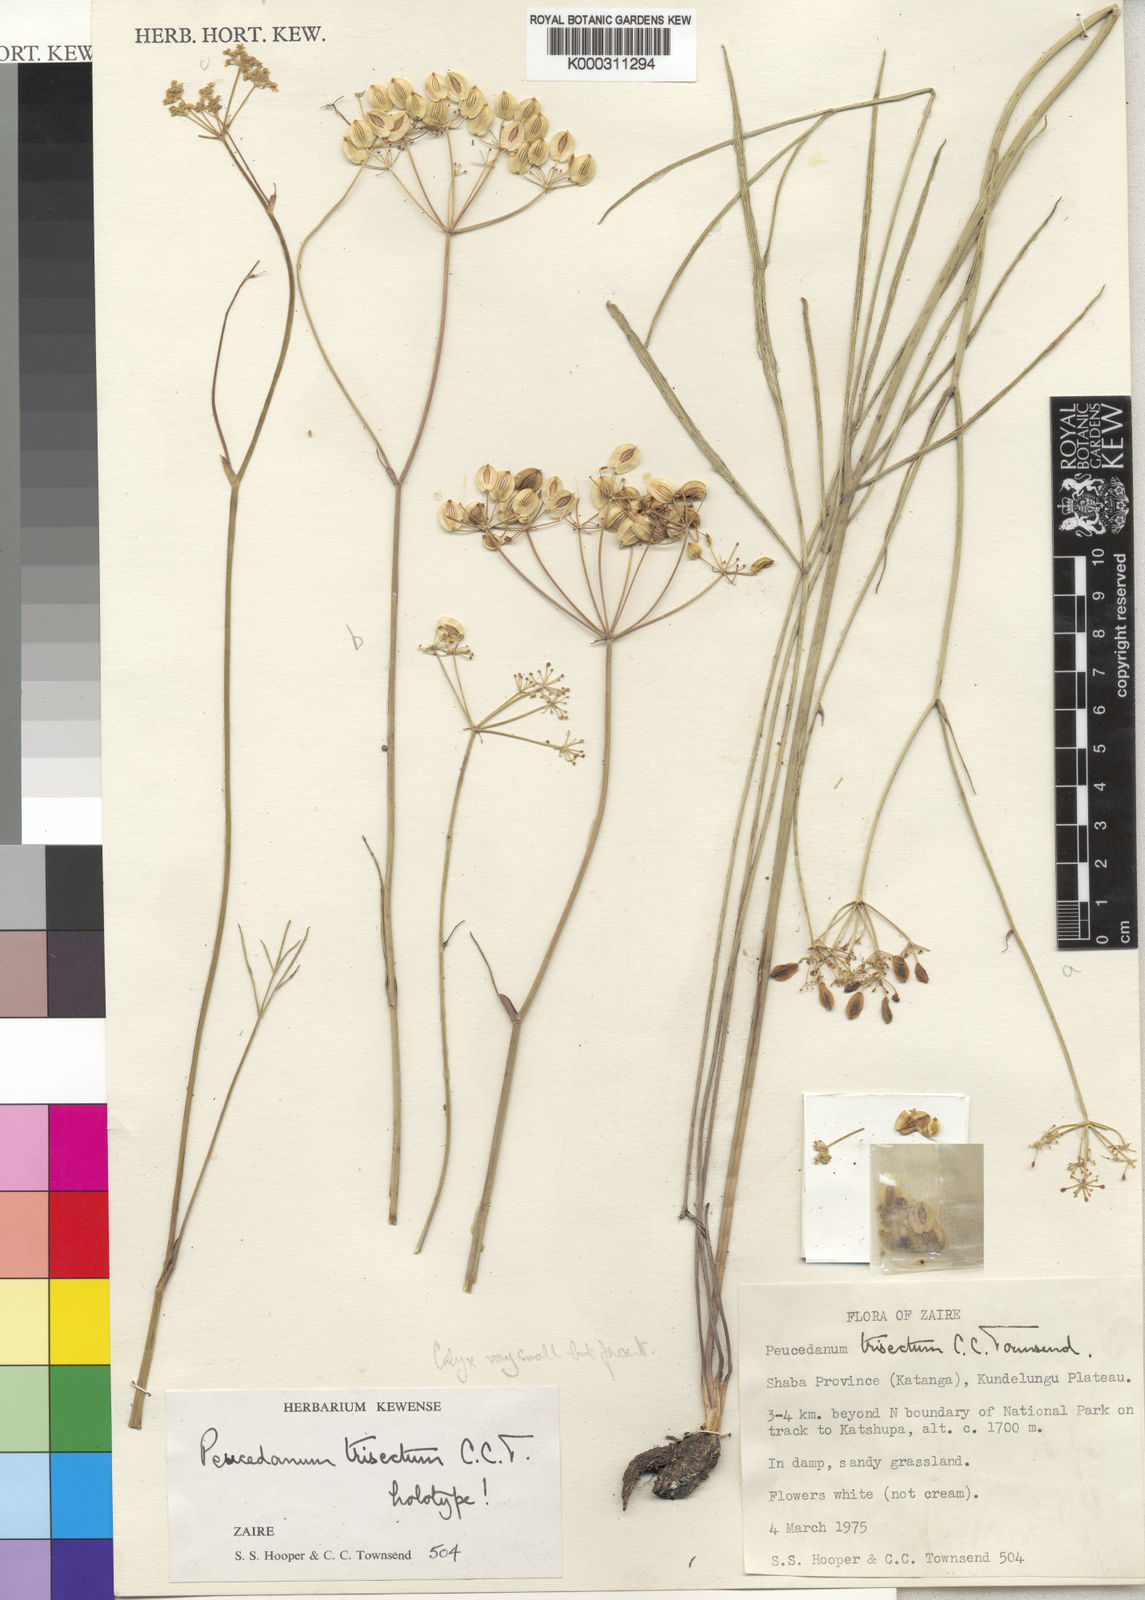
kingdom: Plantae
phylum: Tracheophyta
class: Magnoliopsida
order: Apiales
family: Apiaceae
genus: Afrosciadium
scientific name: Afrosciadium trisectum
